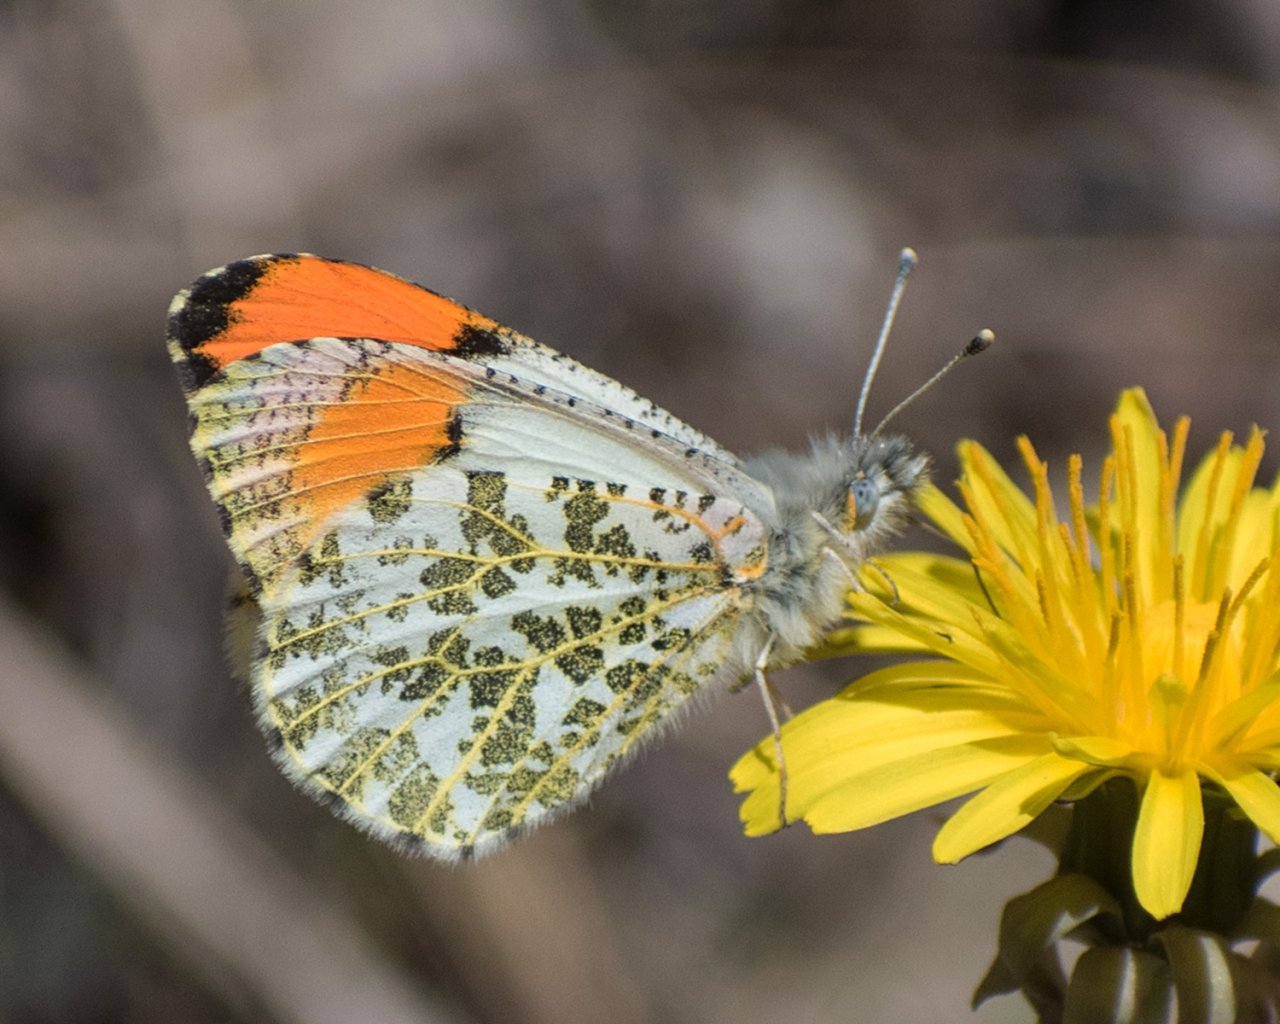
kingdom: Animalia
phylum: Arthropoda
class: Insecta
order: Lepidoptera
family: Pieridae
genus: Anthocharis
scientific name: Anthocharis sara
